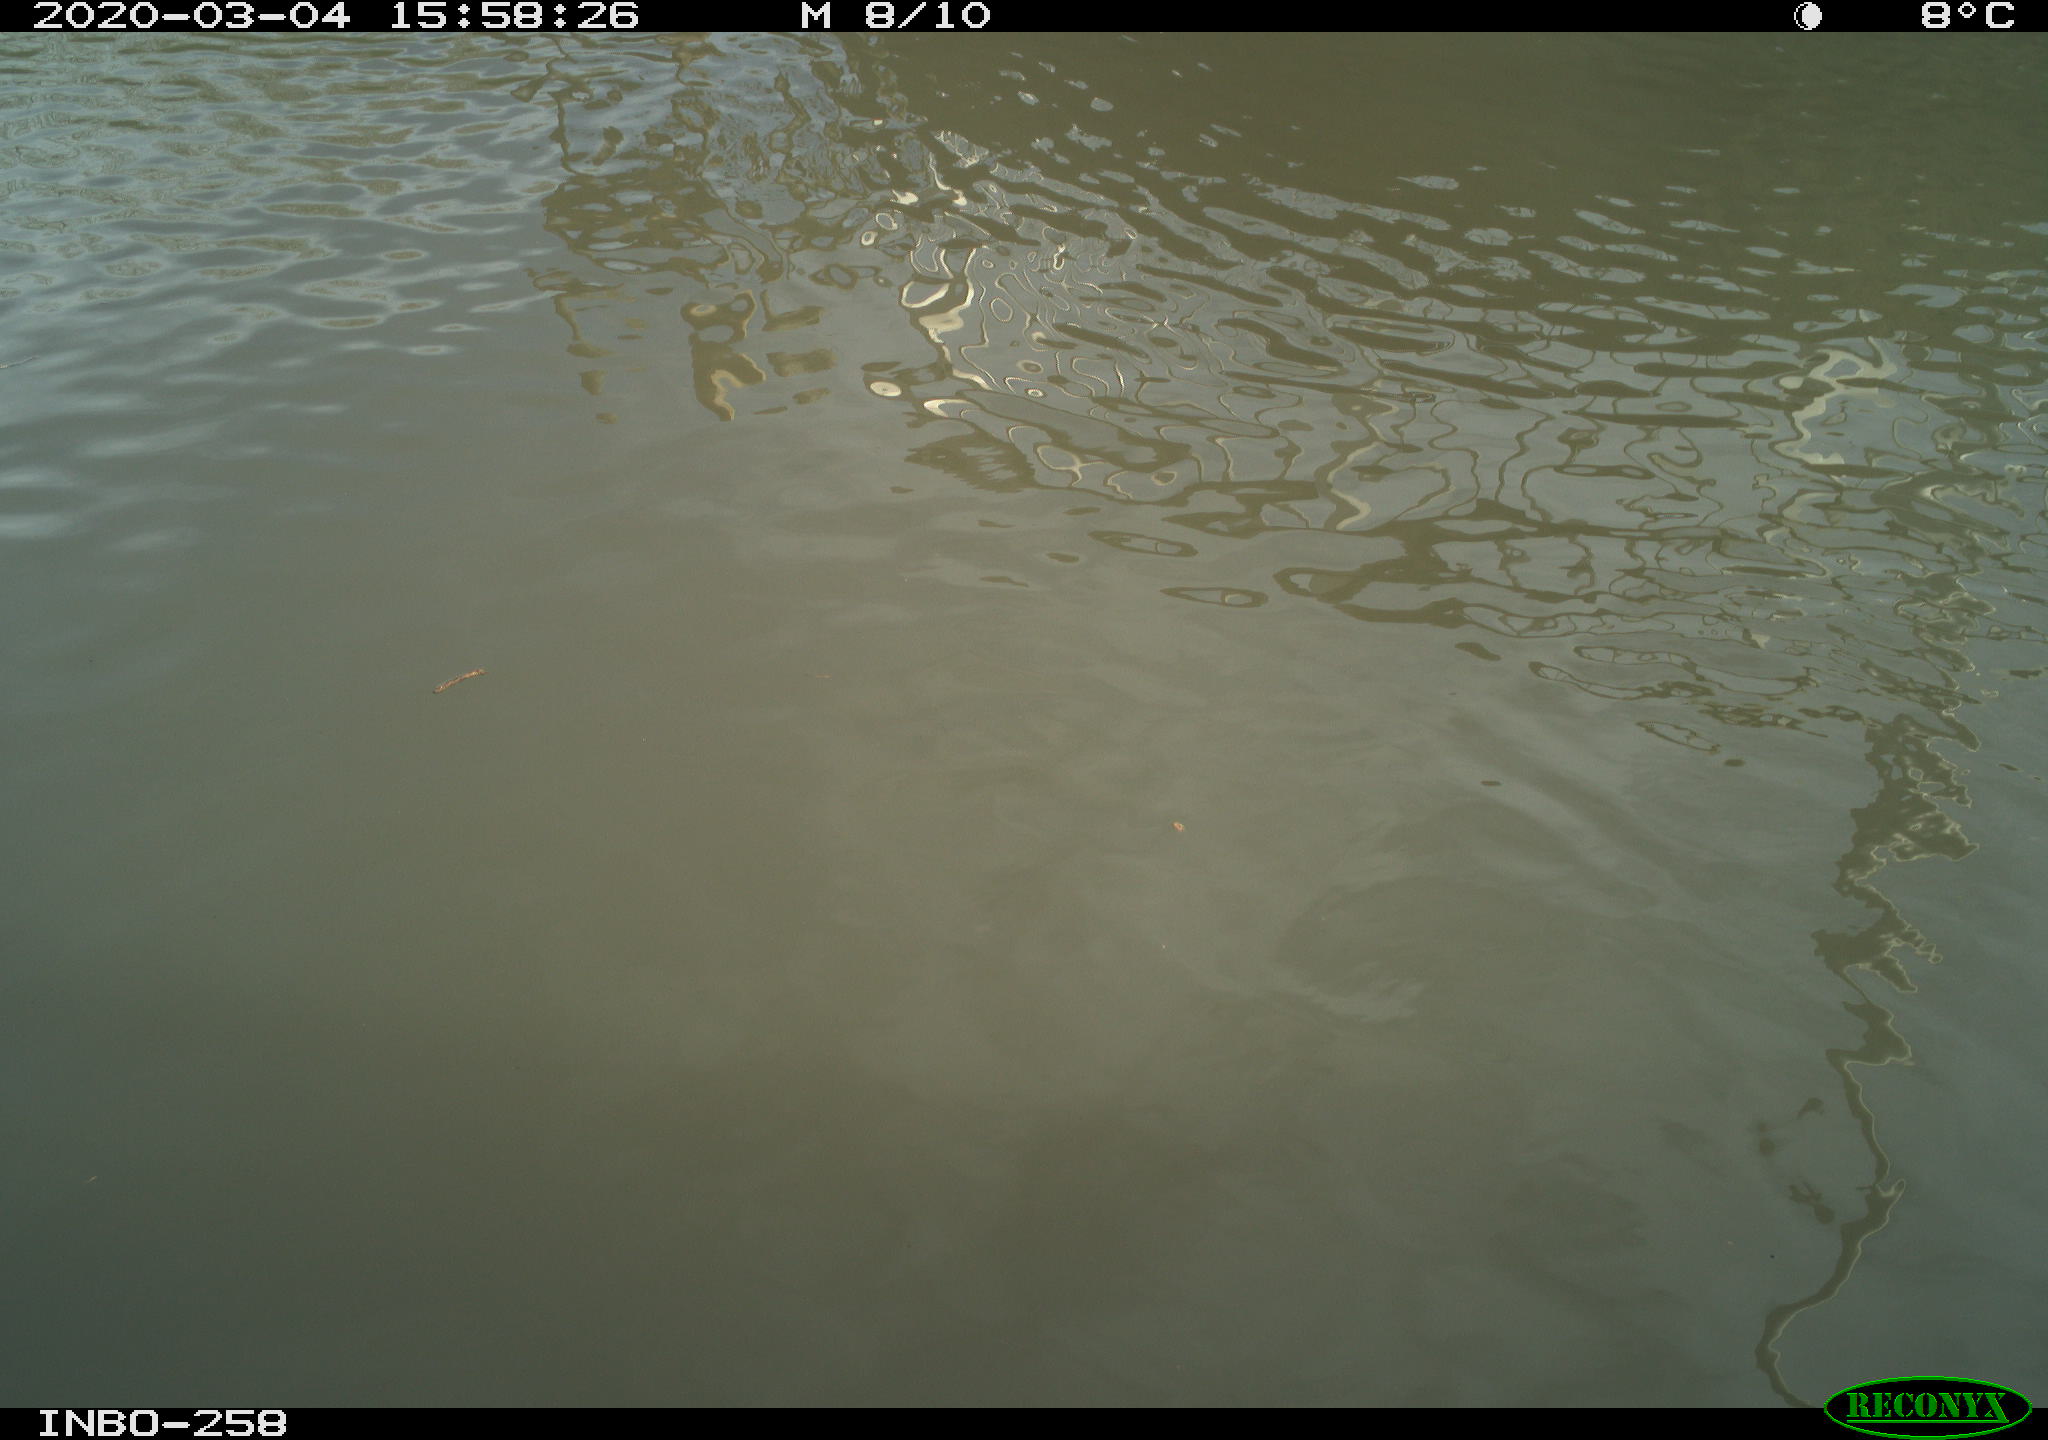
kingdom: Animalia
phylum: Chordata
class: Aves
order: Gruiformes
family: Rallidae
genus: Gallinula
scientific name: Gallinula chloropus
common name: Common moorhen
